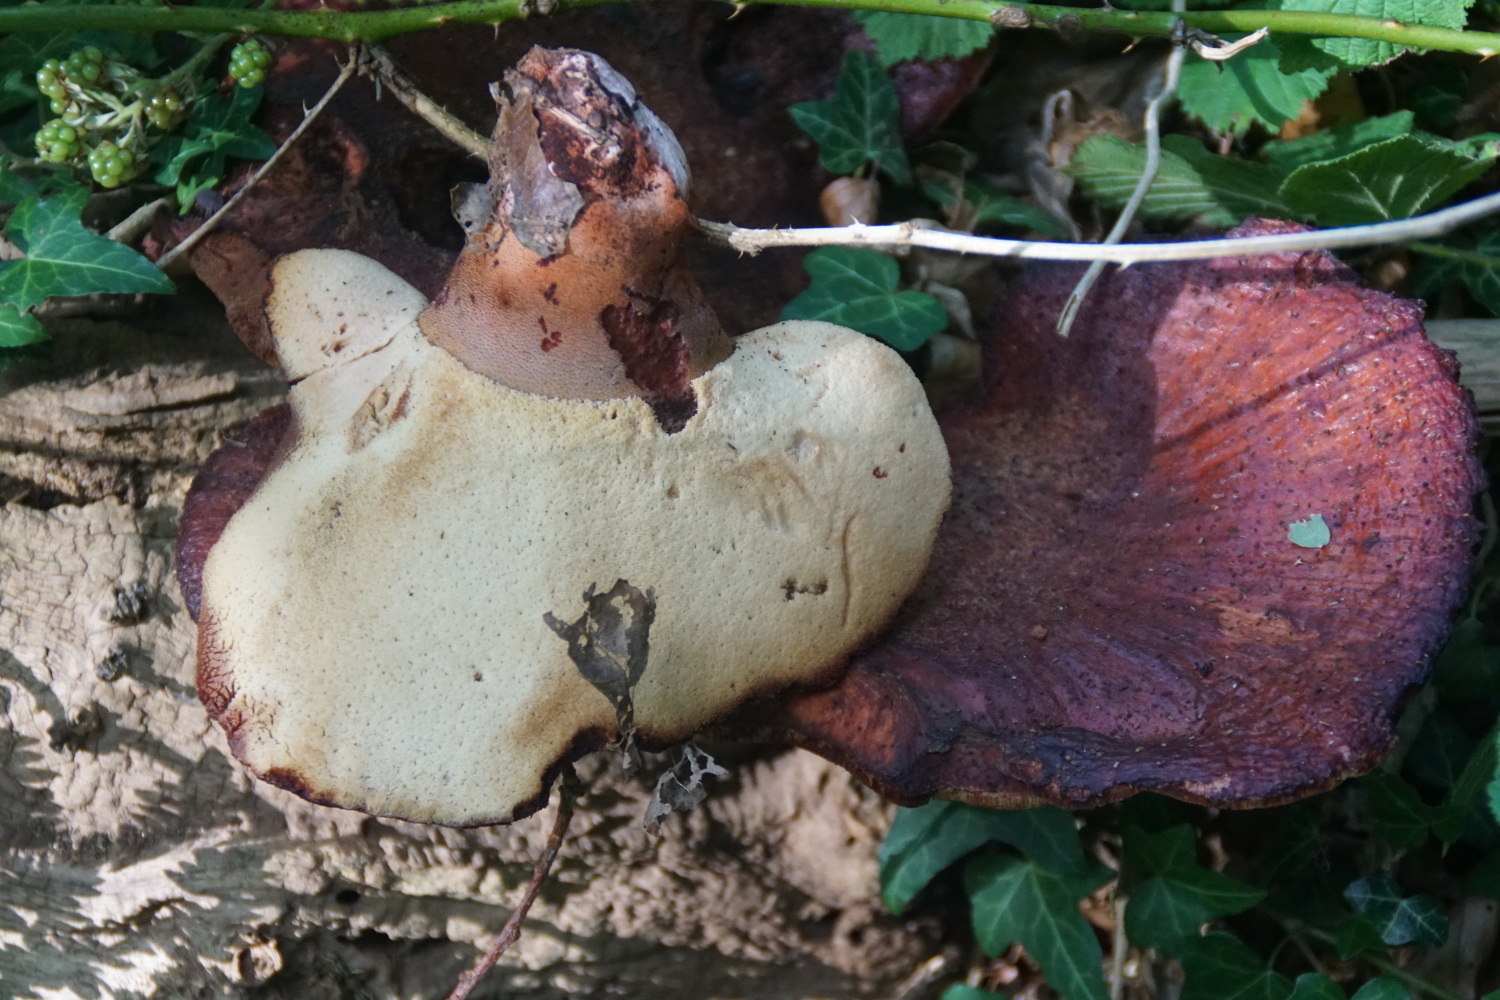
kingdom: Fungi
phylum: Basidiomycota
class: Agaricomycetes
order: Agaricales
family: Fistulinaceae
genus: Fistulina
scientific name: Fistulina hepatica
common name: oksetunge
